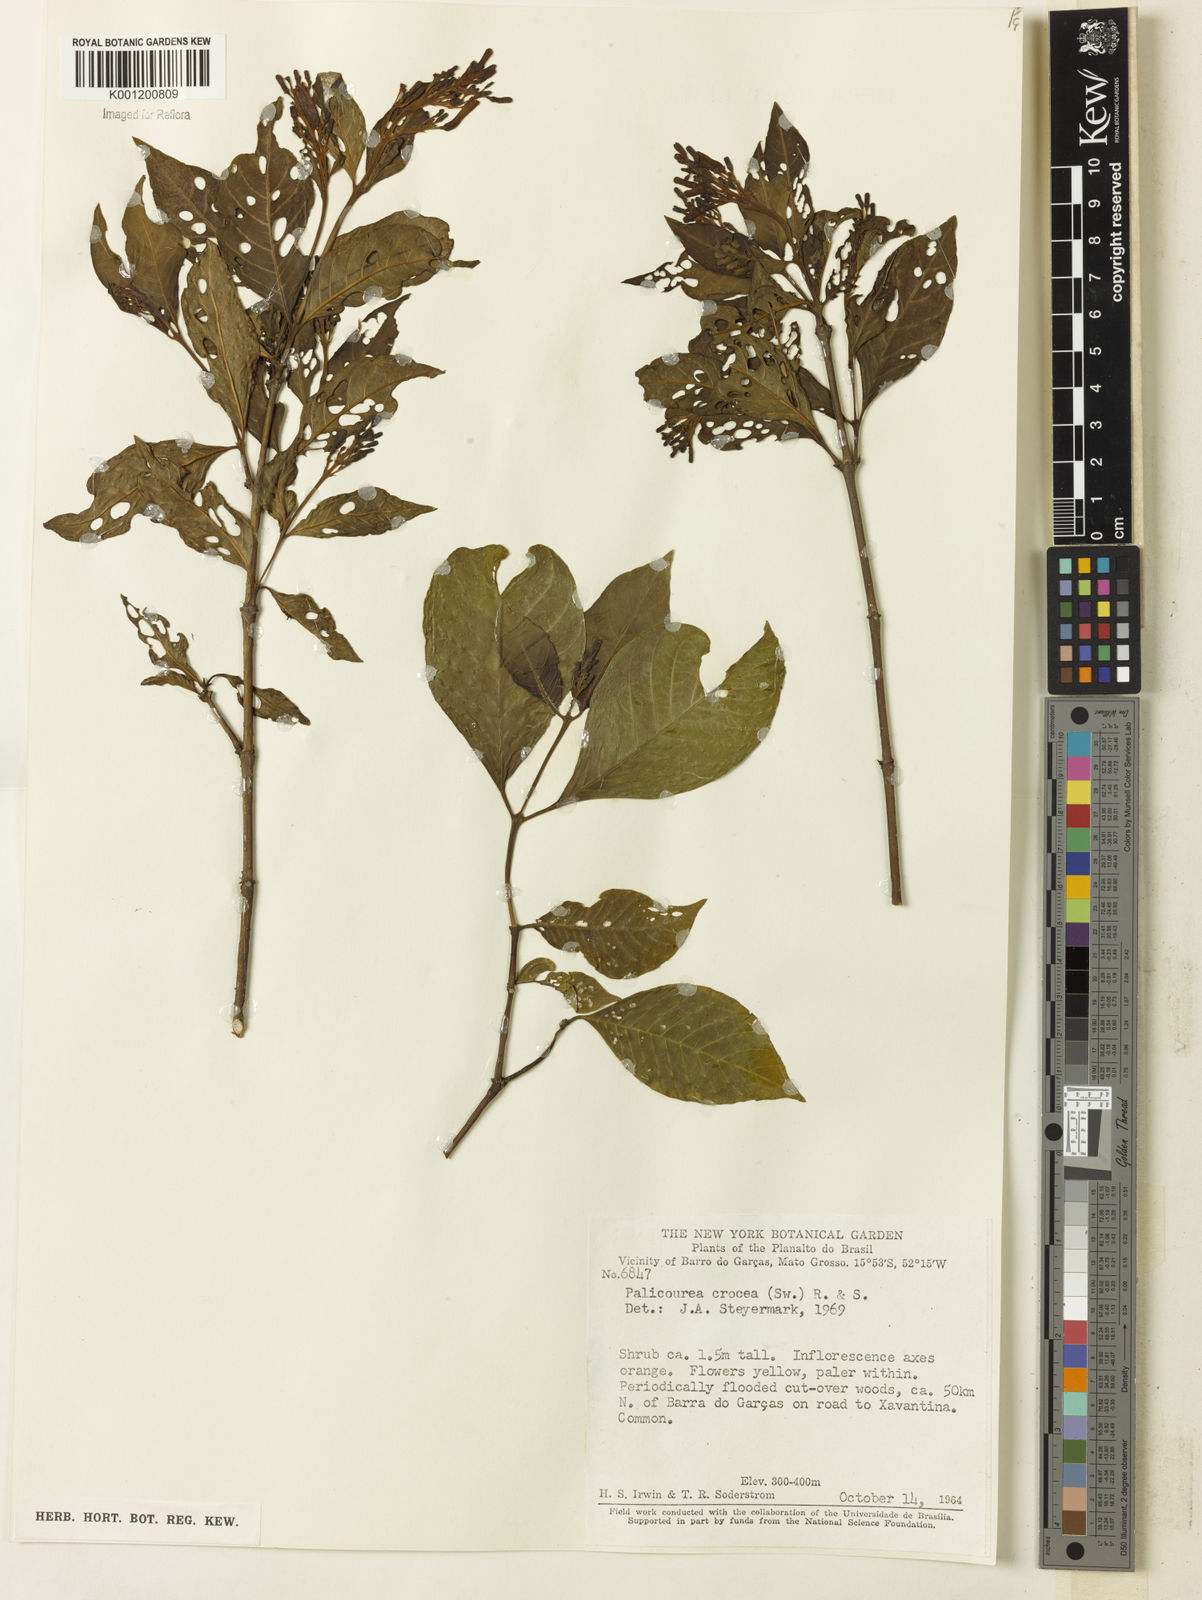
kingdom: Plantae
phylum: Tracheophyta
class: Magnoliopsida
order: Gentianales
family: Rubiaceae
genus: Palicourea
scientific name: Palicourea crocea
